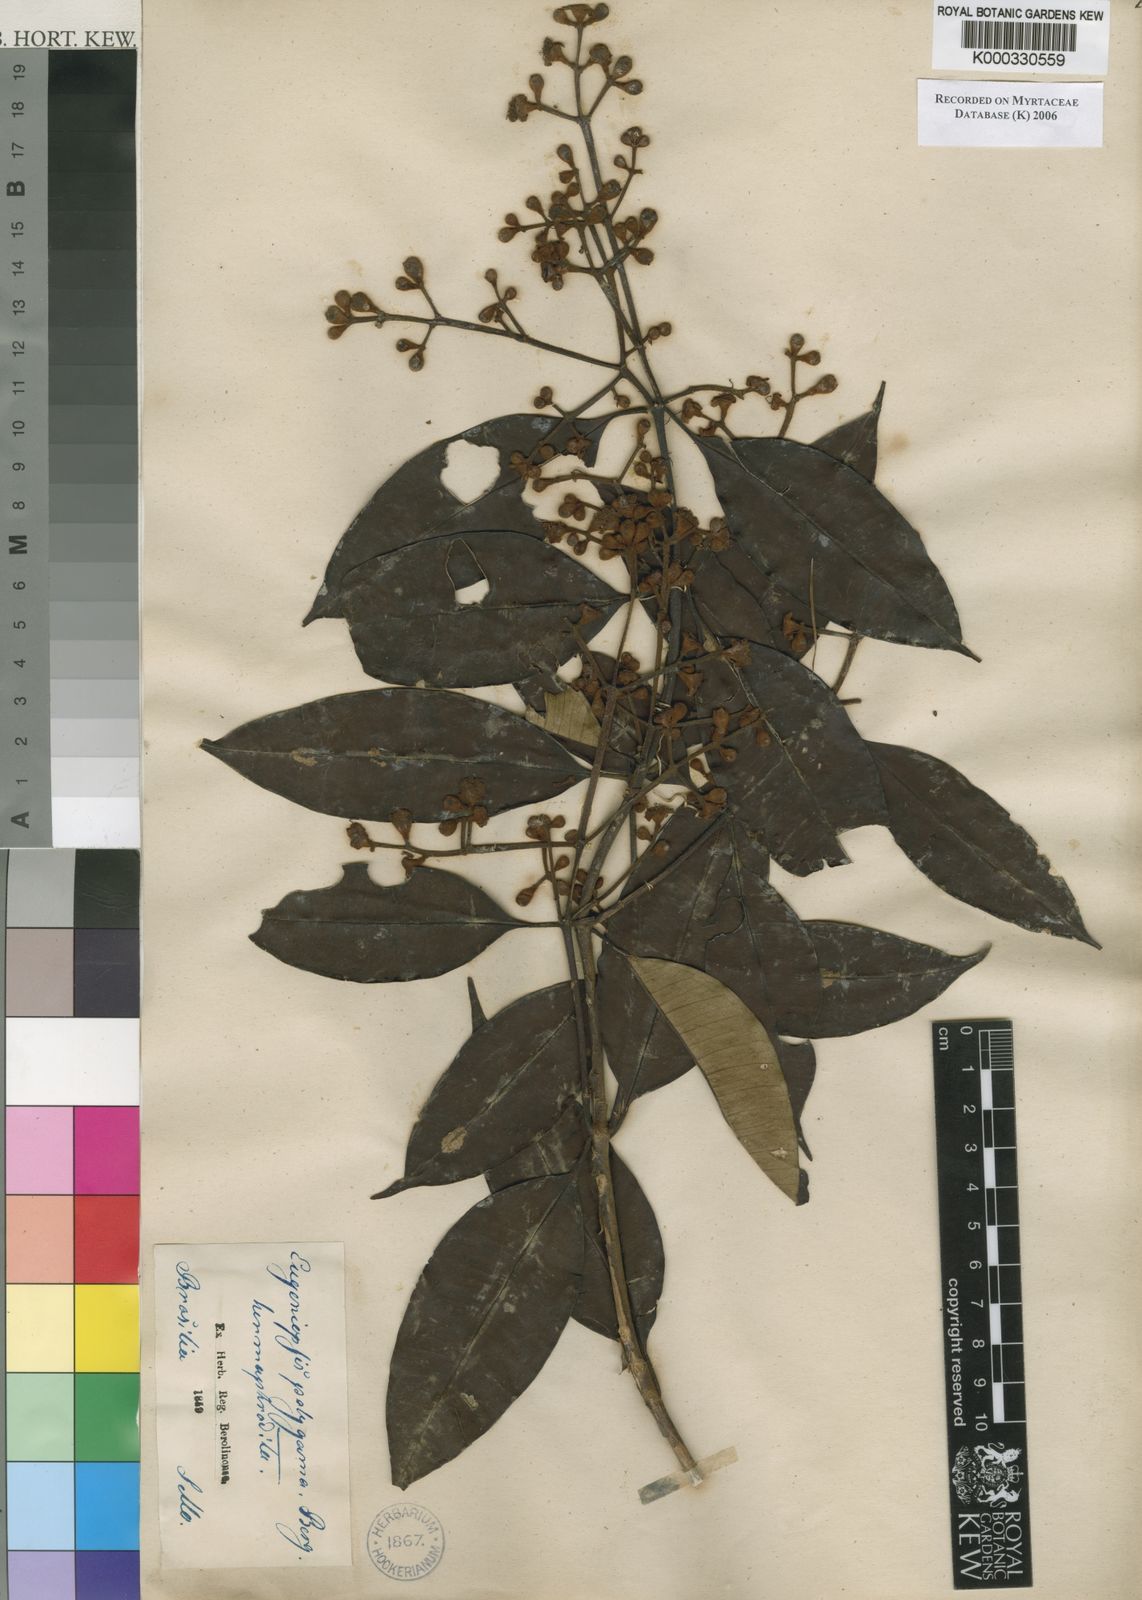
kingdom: Plantae
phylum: Tracheophyta
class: Magnoliopsida
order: Myrtales
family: Myrtaceae
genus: Myrcia
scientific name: Myrcia polygama
